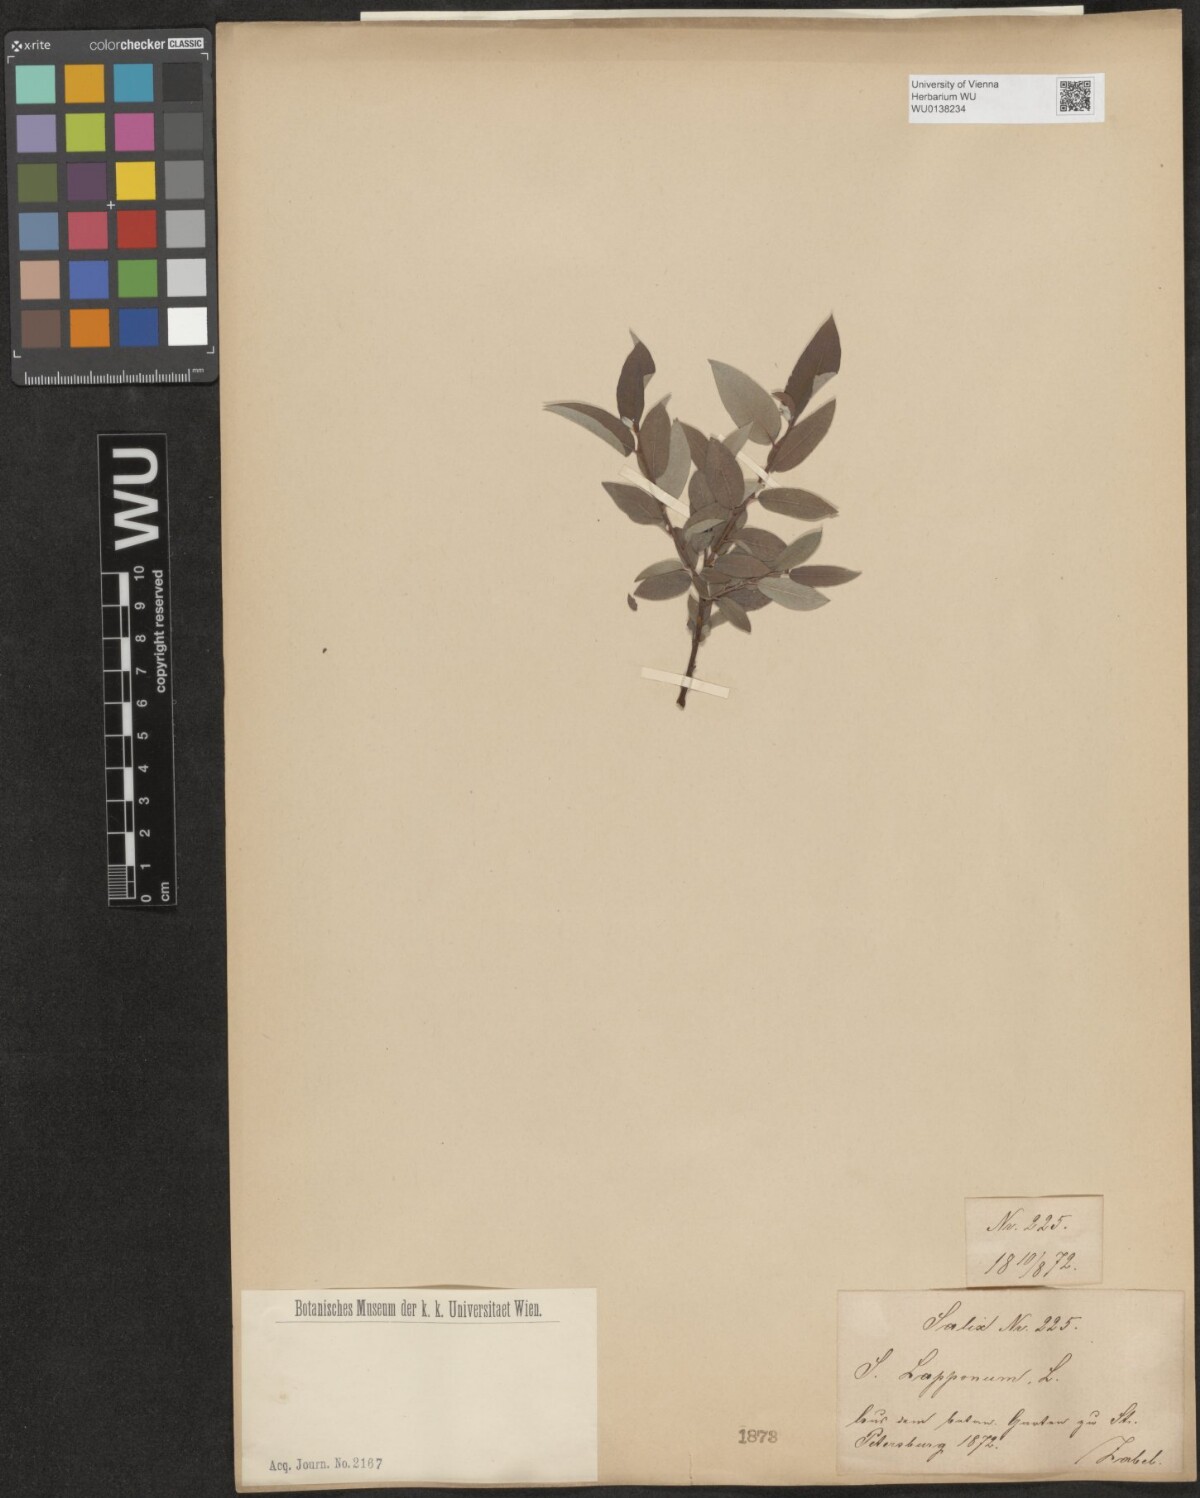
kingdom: Plantae
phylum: Tracheophyta
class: Magnoliopsida
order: Malpighiales
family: Salicaceae
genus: Salix
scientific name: Salix lapponum
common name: Downy willow
